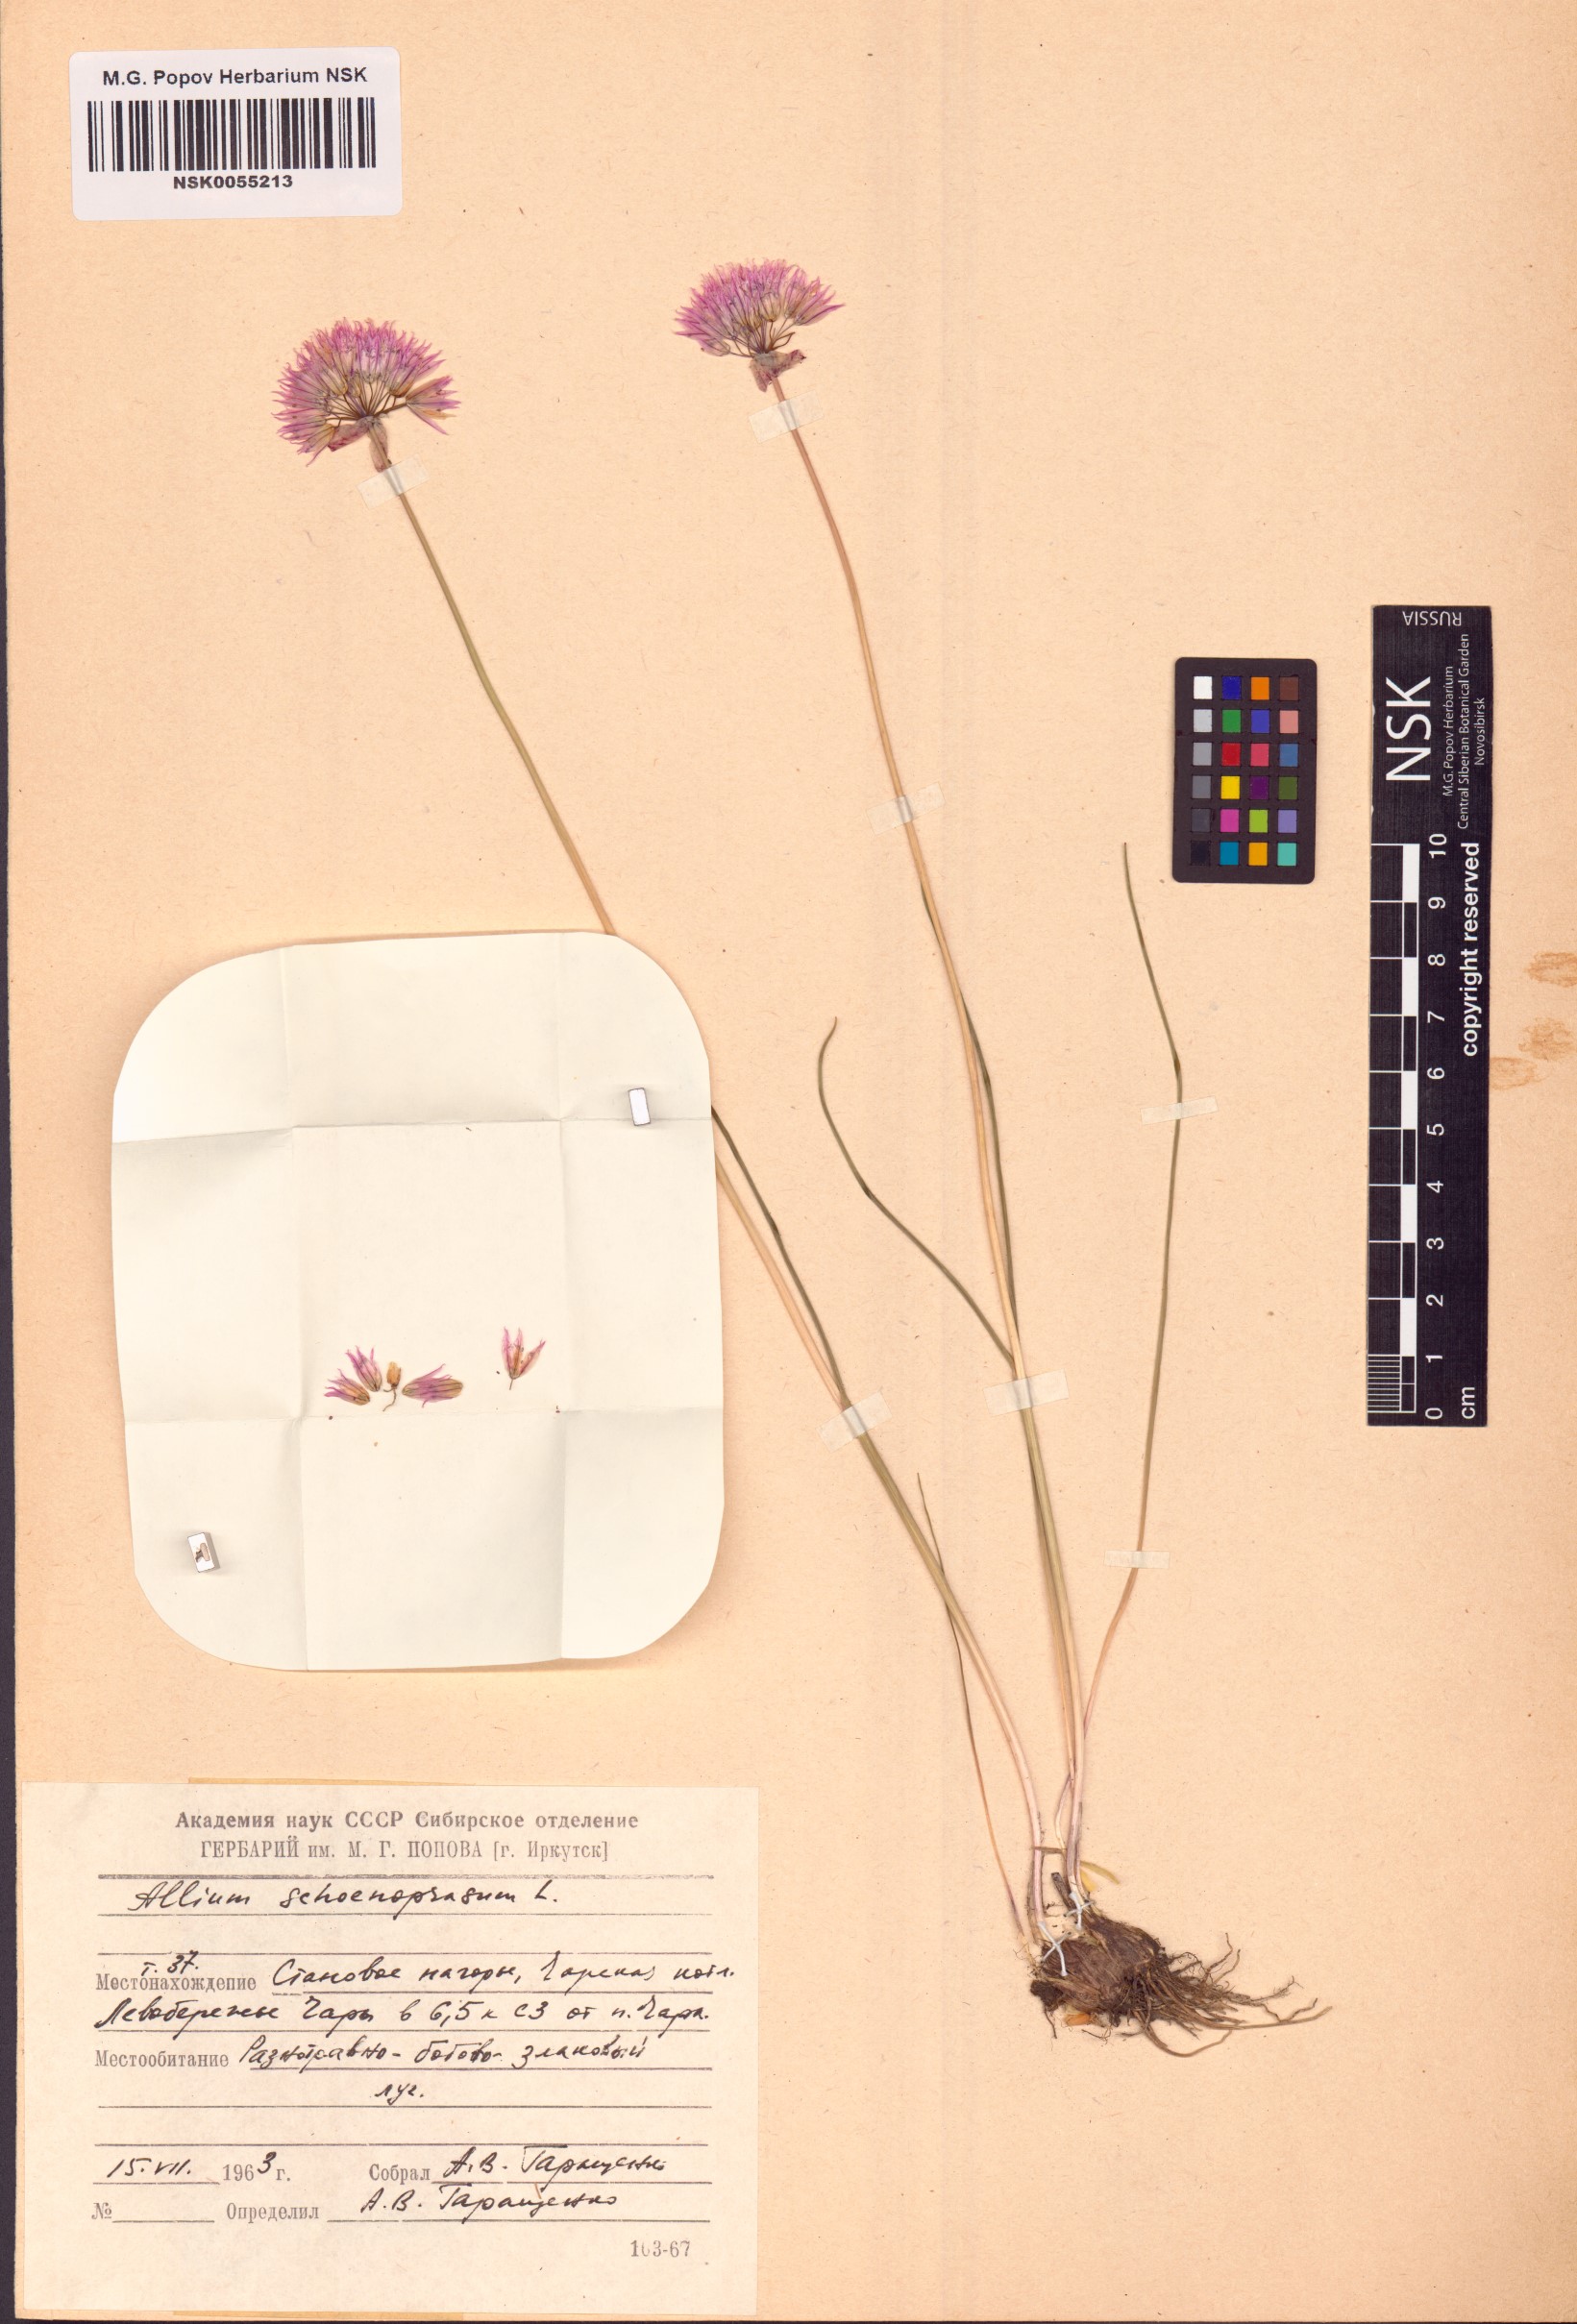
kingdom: Plantae
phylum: Tracheophyta
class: Liliopsida
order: Asparagales
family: Amaryllidaceae
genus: Allium
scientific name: Allium schoenoprasum
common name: Chives
